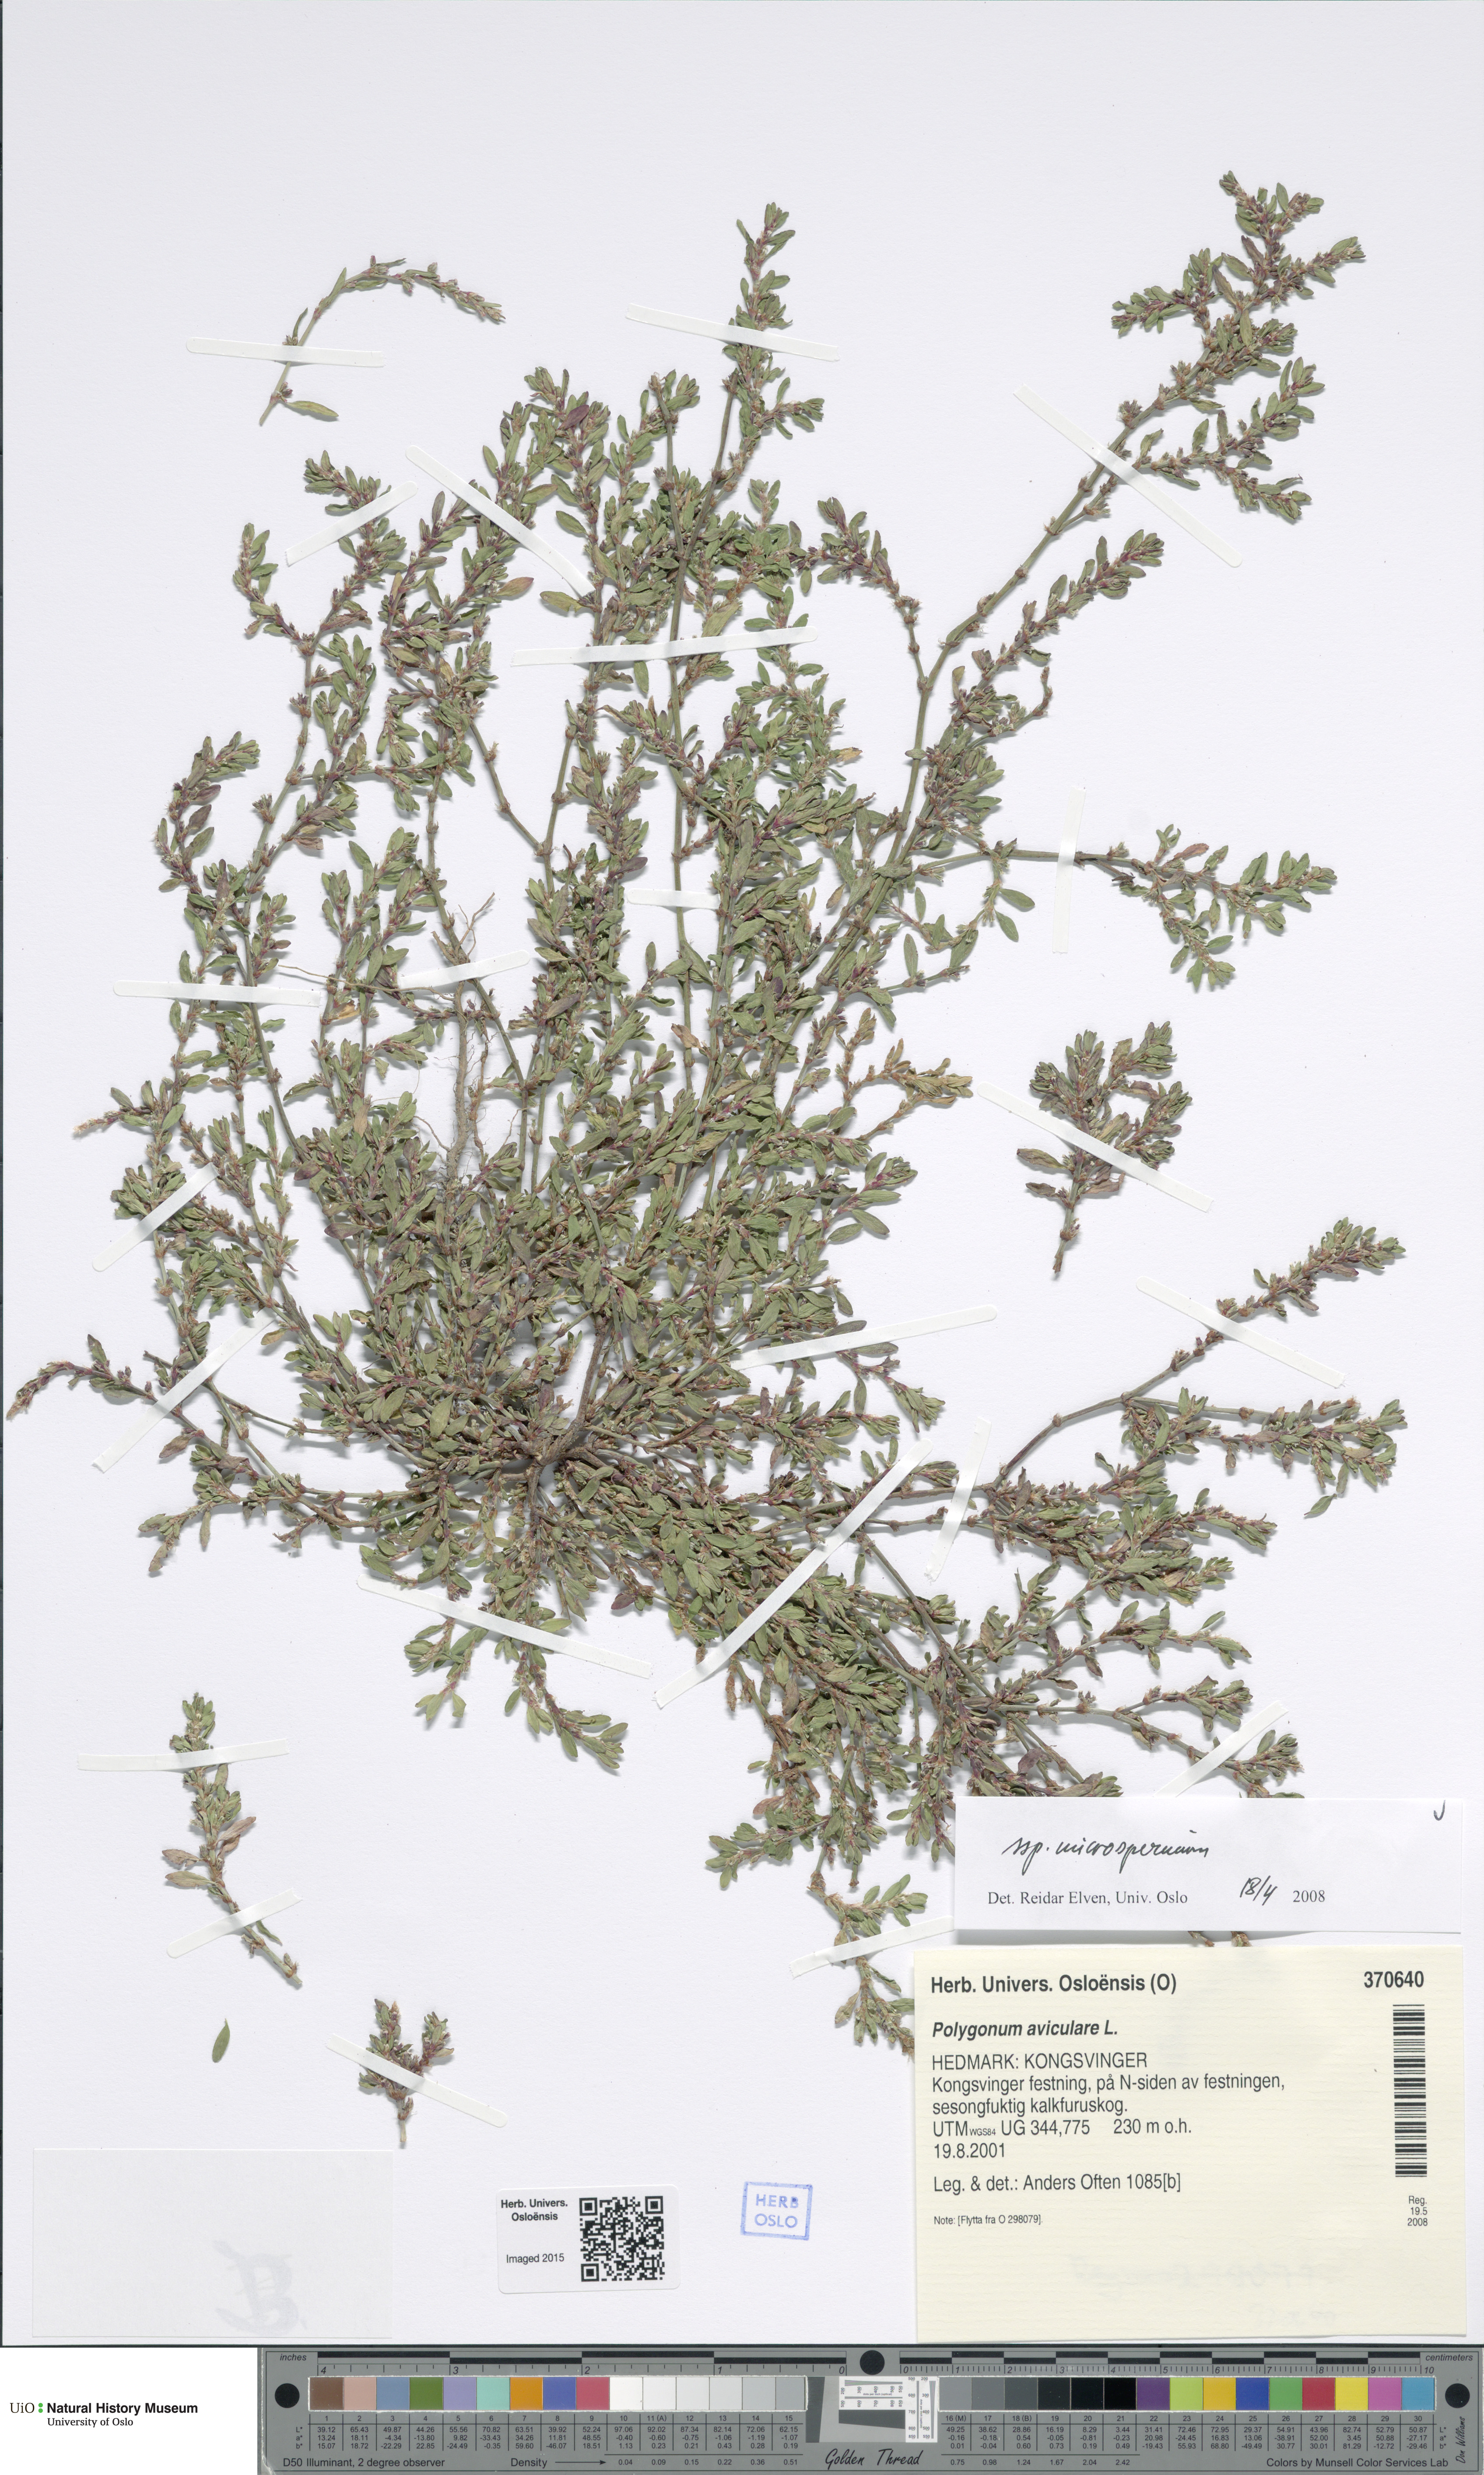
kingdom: Plantae
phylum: Tracheophyta
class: Magnoliopsida
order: Caryophyllales
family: Polygonaceae
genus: Polygonum
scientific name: Polygonum arenastrum
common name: Equal-leaved knotgrass
